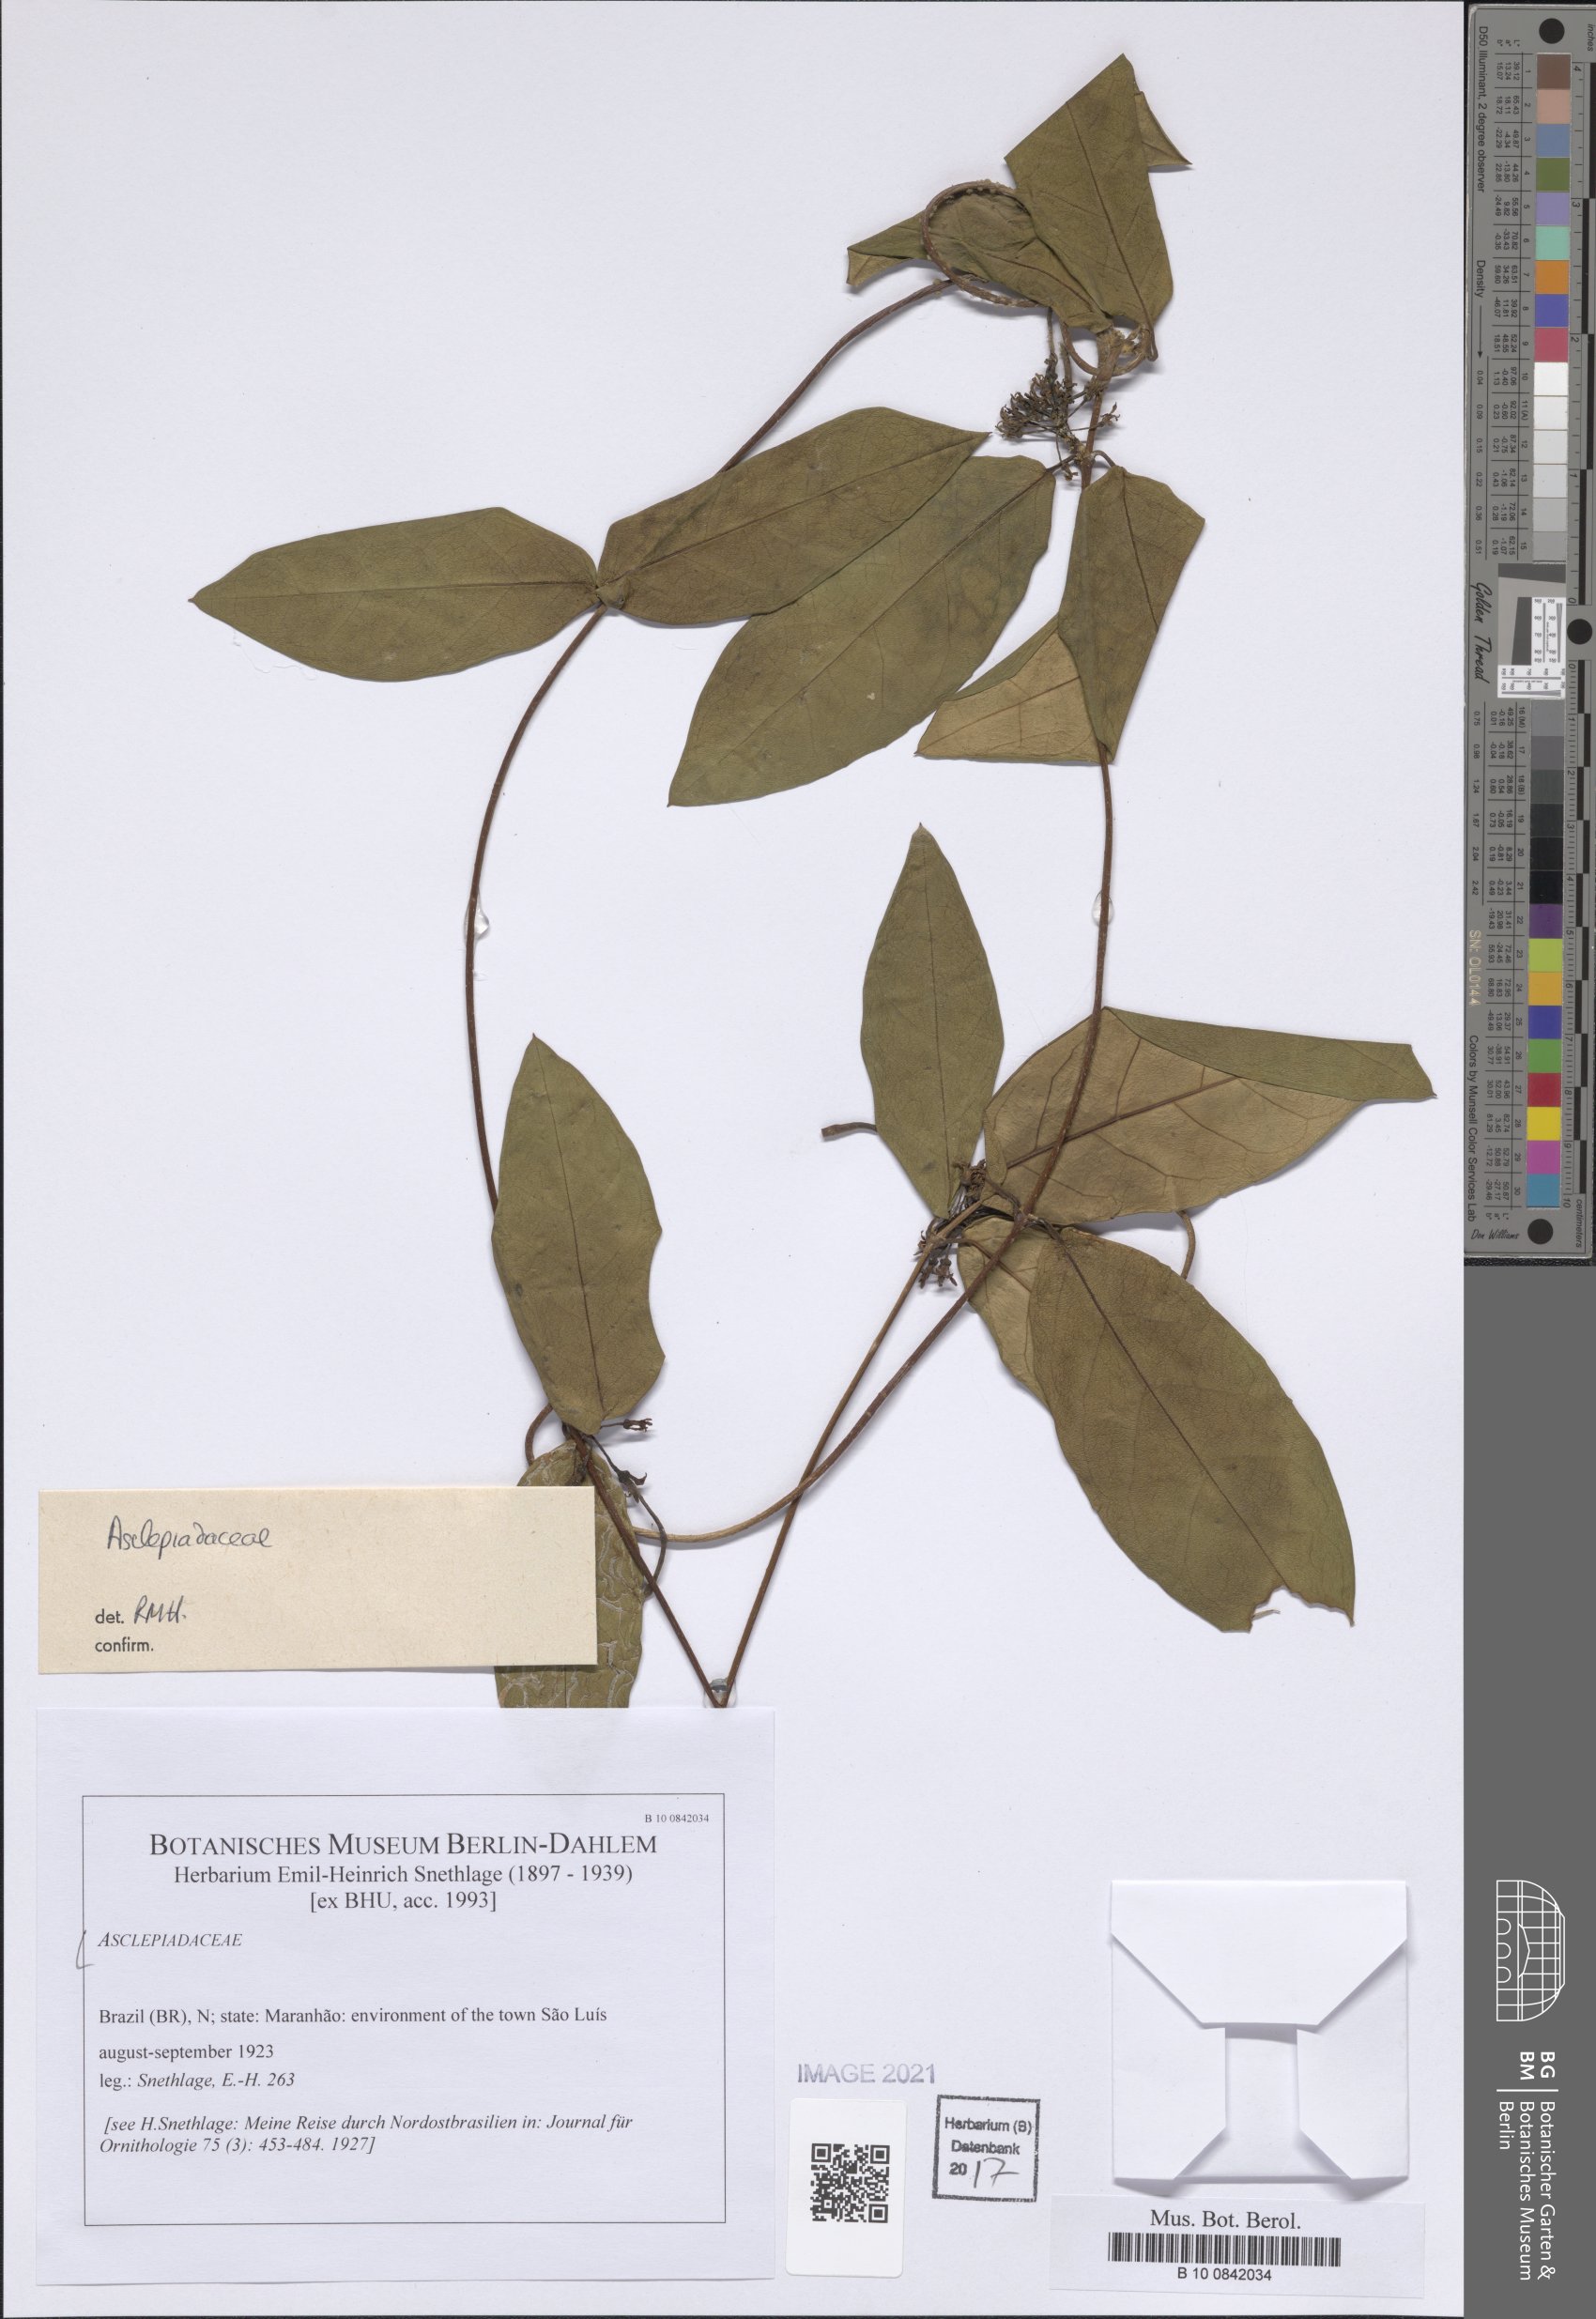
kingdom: Plantae
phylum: Tracheophyta
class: Magnoliopsida
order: Gentianales
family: Apocynaceae
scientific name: Apocynaceae
